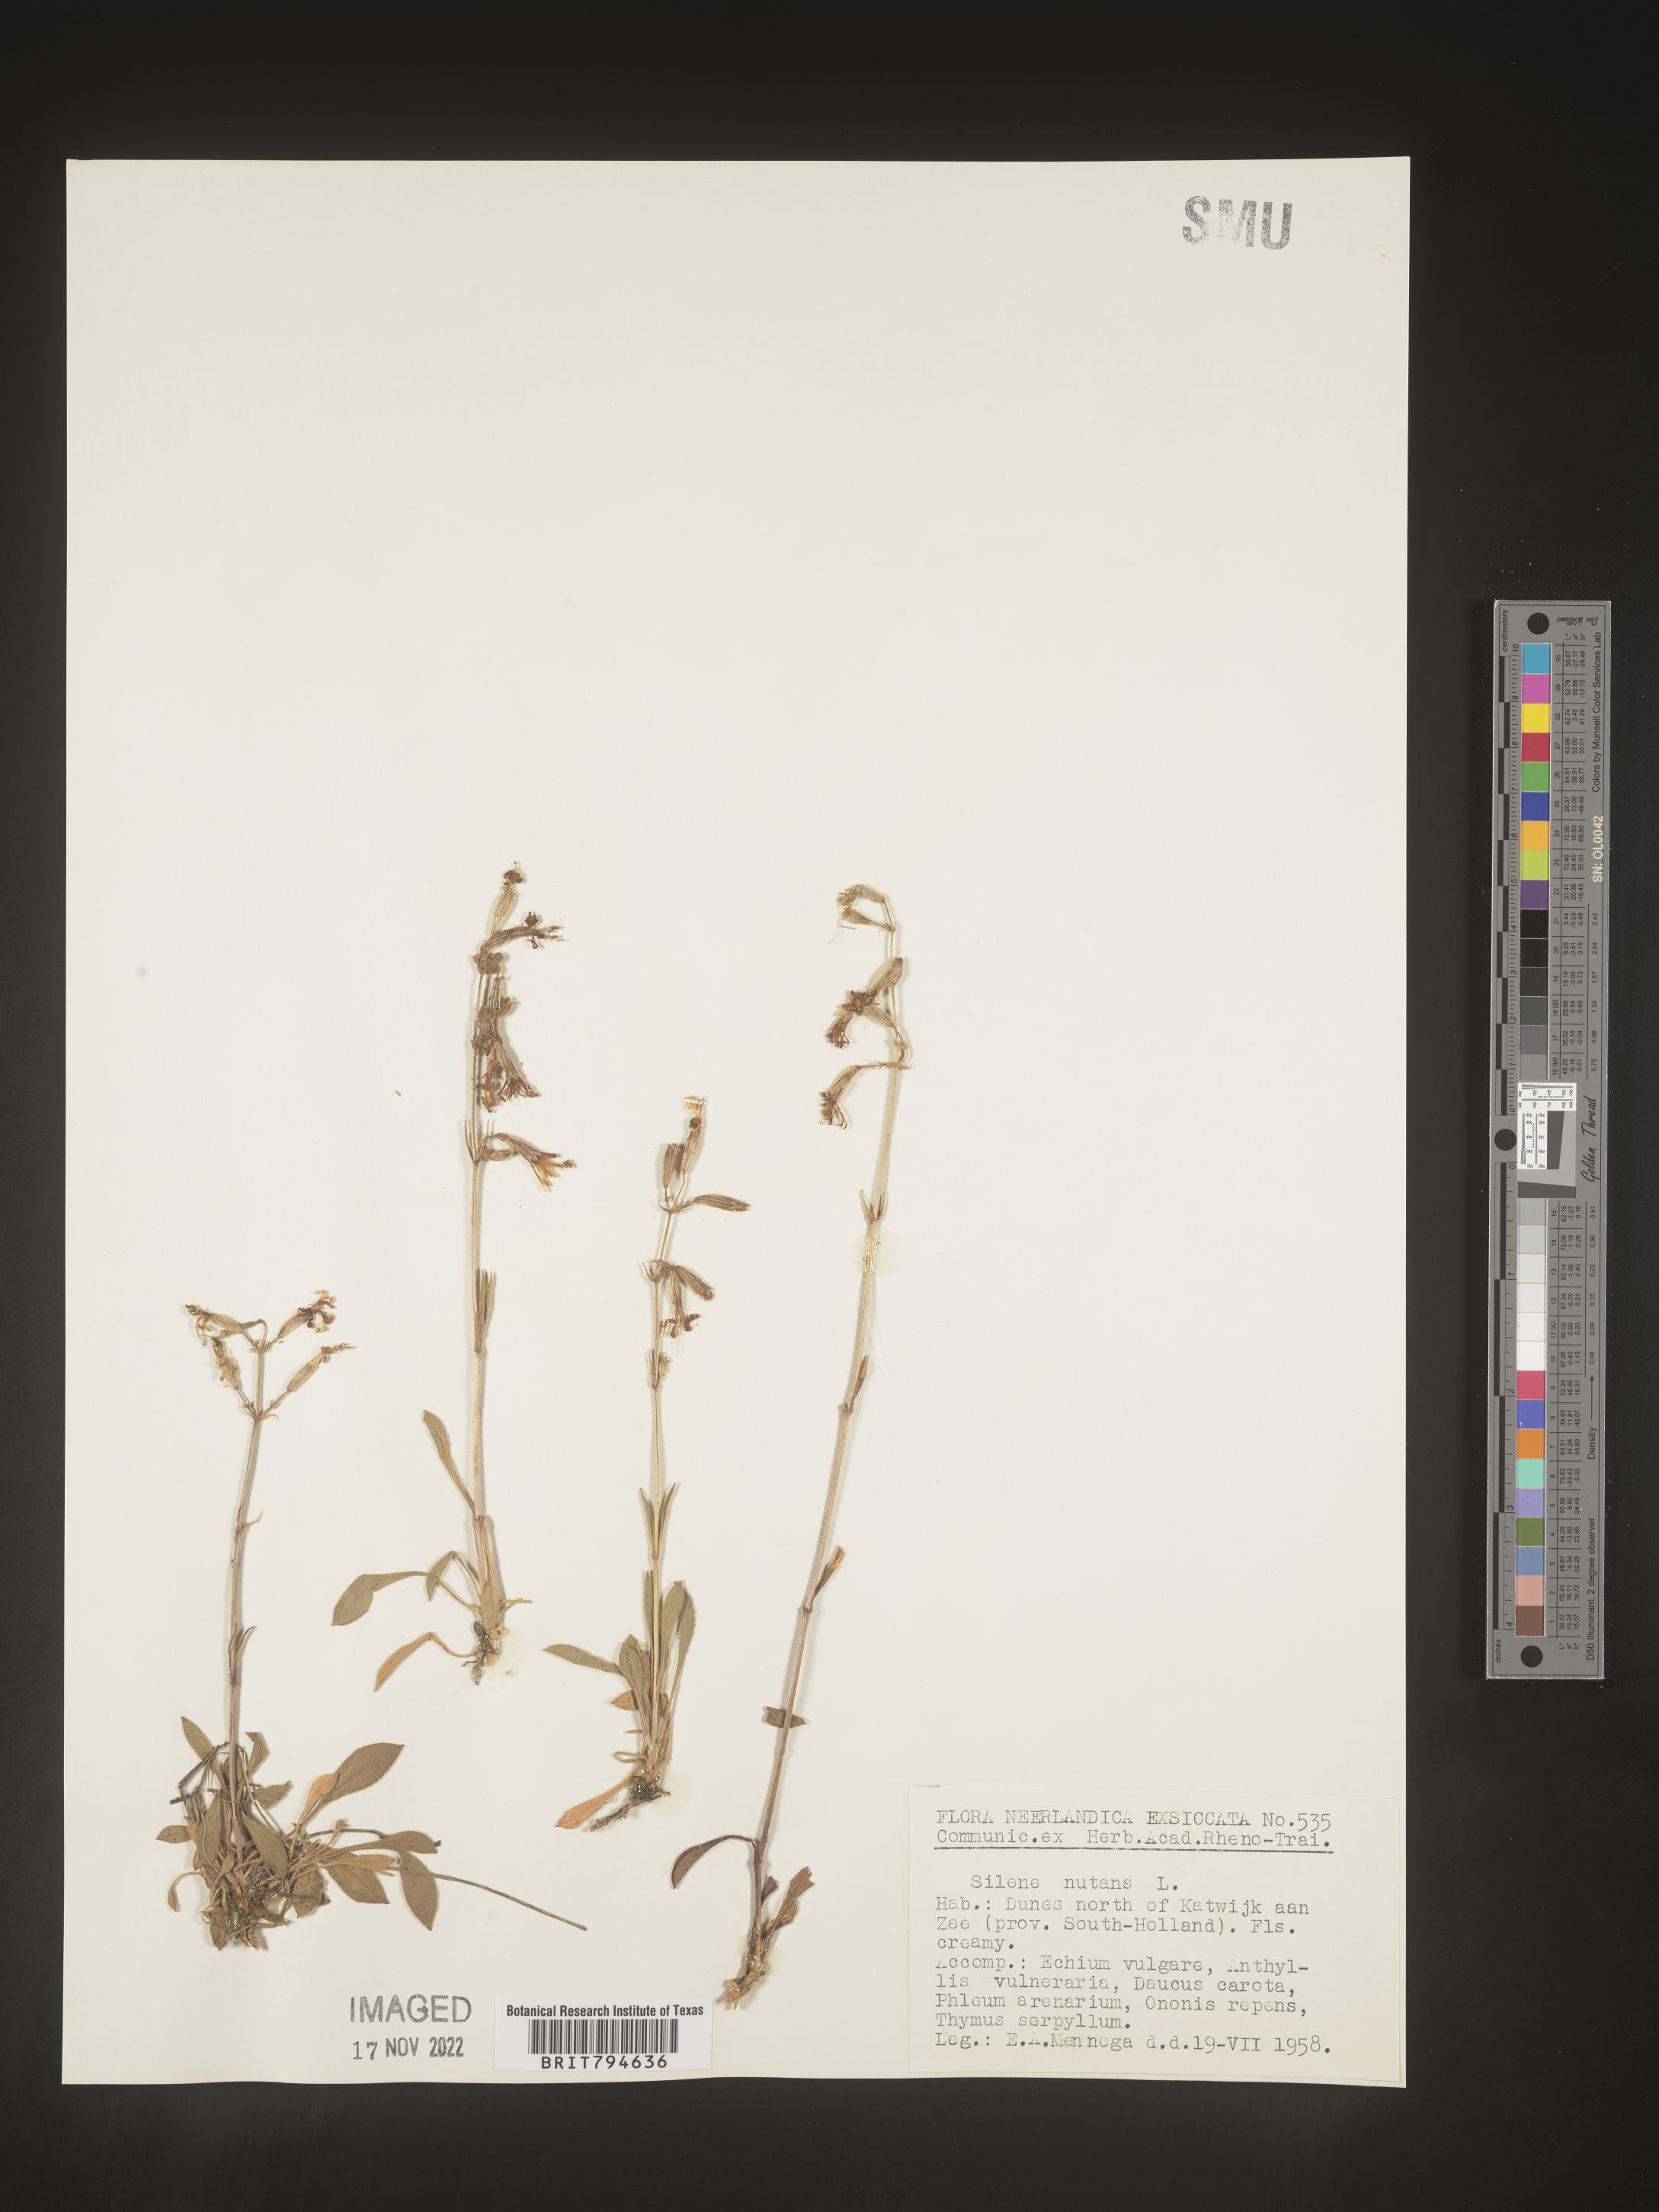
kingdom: Plantae
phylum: Tracheophyta
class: Magnoliopsida
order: Caryophyllales
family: Caryophyllaceae
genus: Silene
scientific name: Silene nutans
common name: Nottingham catchfly
